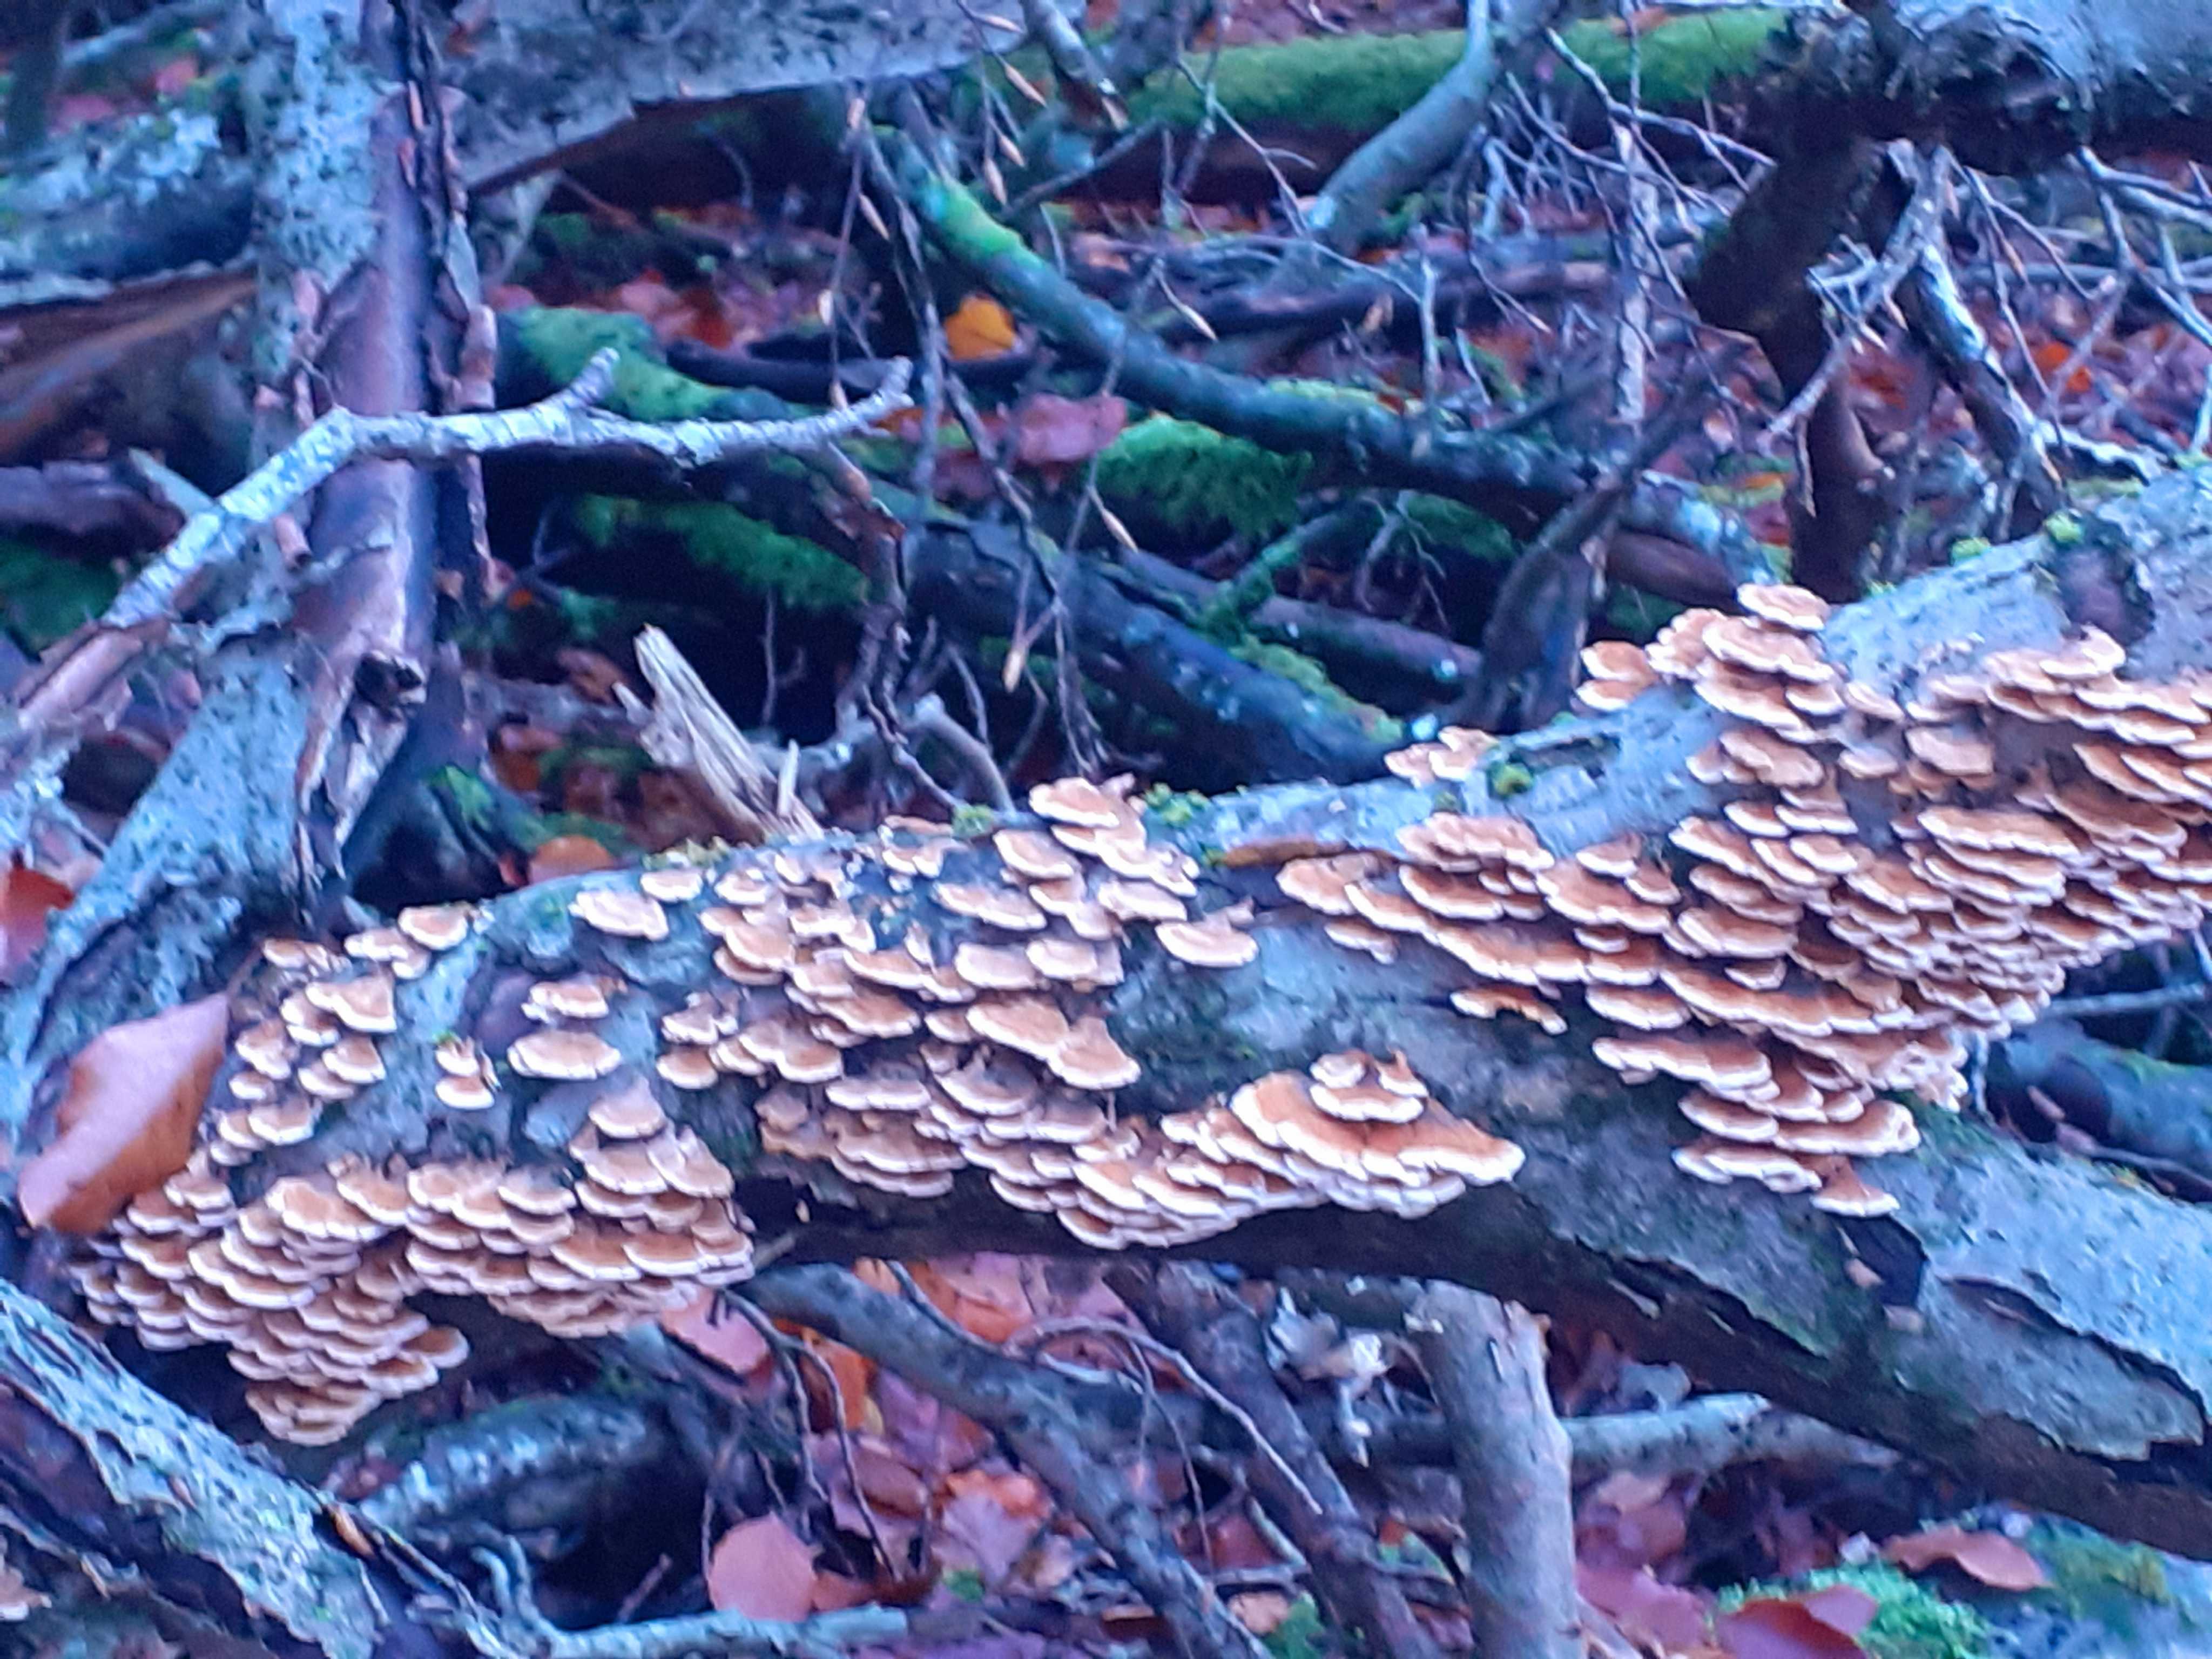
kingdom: Fungi
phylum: Basidiomycota
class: Agaricomycetes
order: Amylocorticiales
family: Amylocorticiaceae
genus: Plicaturopsis
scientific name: Plicaturopsis crispa
